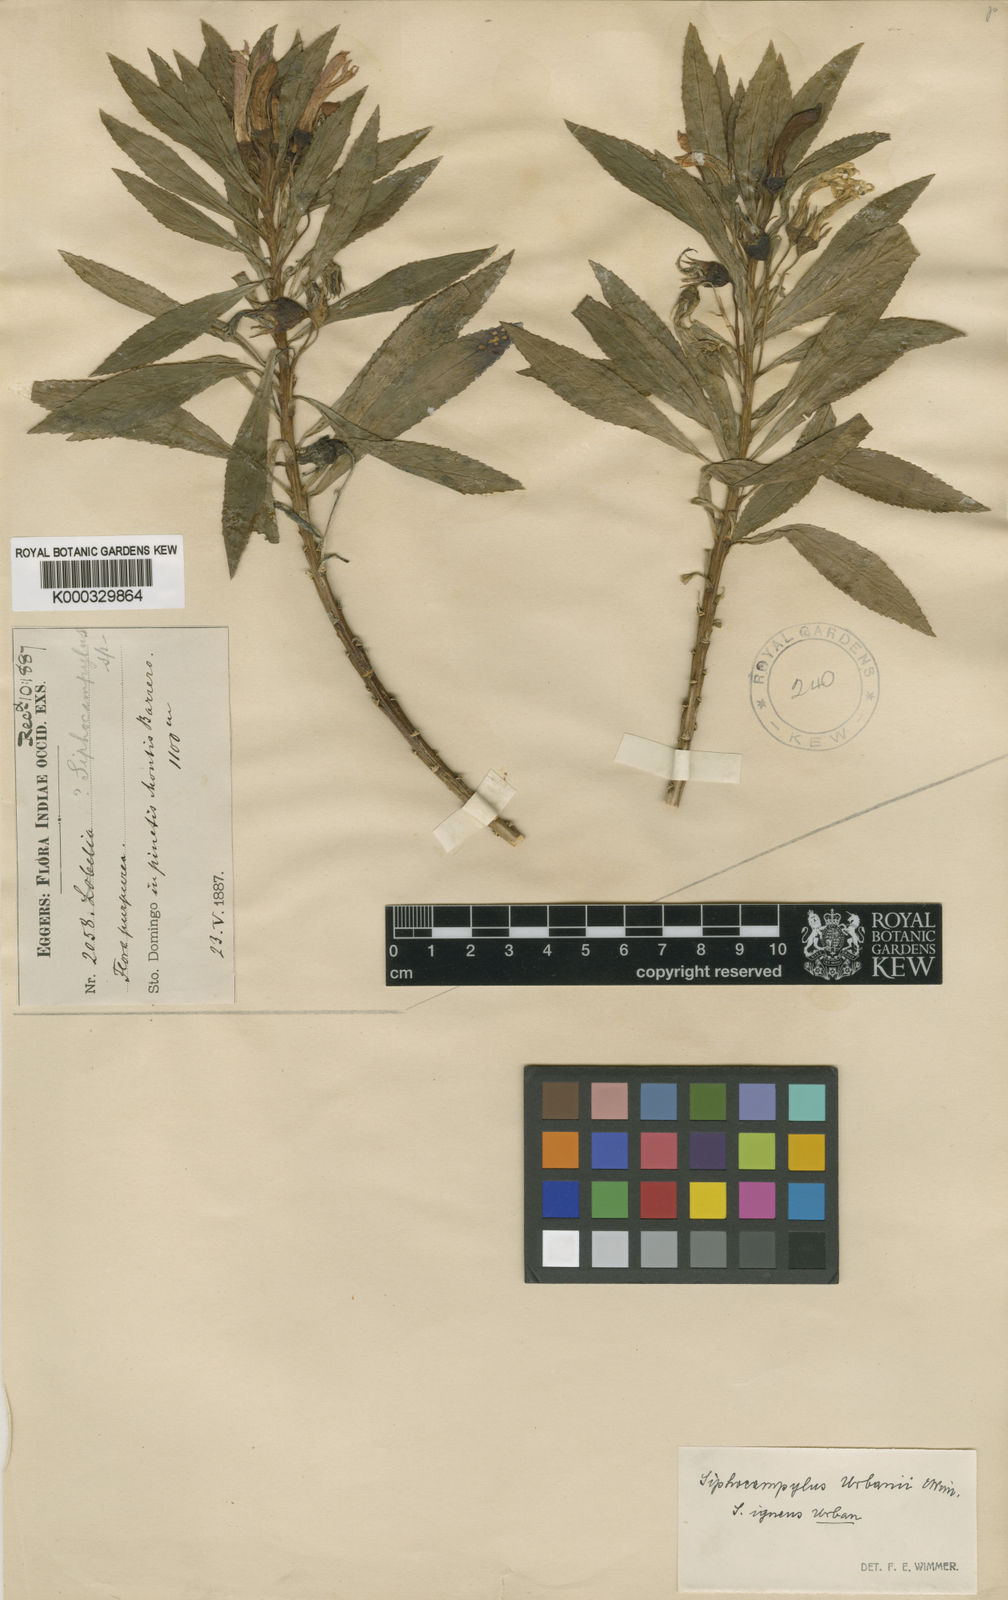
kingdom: Plantae
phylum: Tracheophyta
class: Magnoliopsida
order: Asterales
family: Campanulaceae
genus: Siphocampylus
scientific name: Siphocampylus igneus
